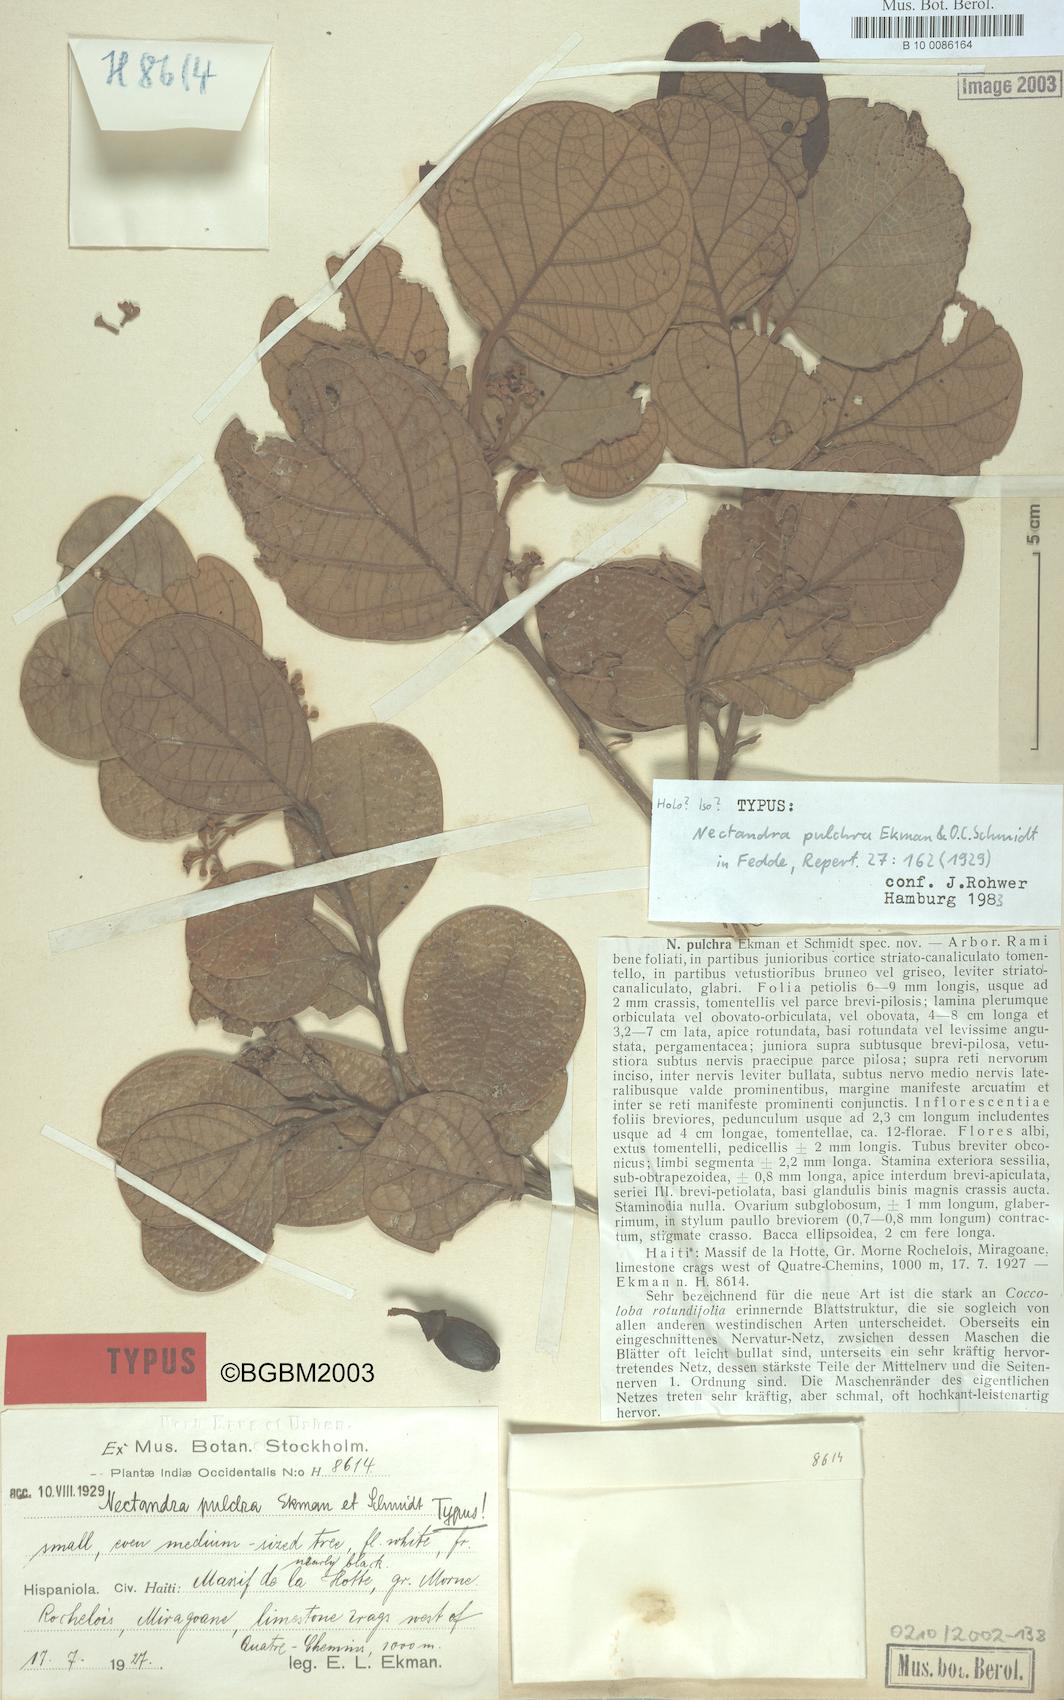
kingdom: Plantae
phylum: Tracheophyta
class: Magnoliopsida
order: Laurales
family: Lauraceae
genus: Nectandra
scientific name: Nectandra pulchra
